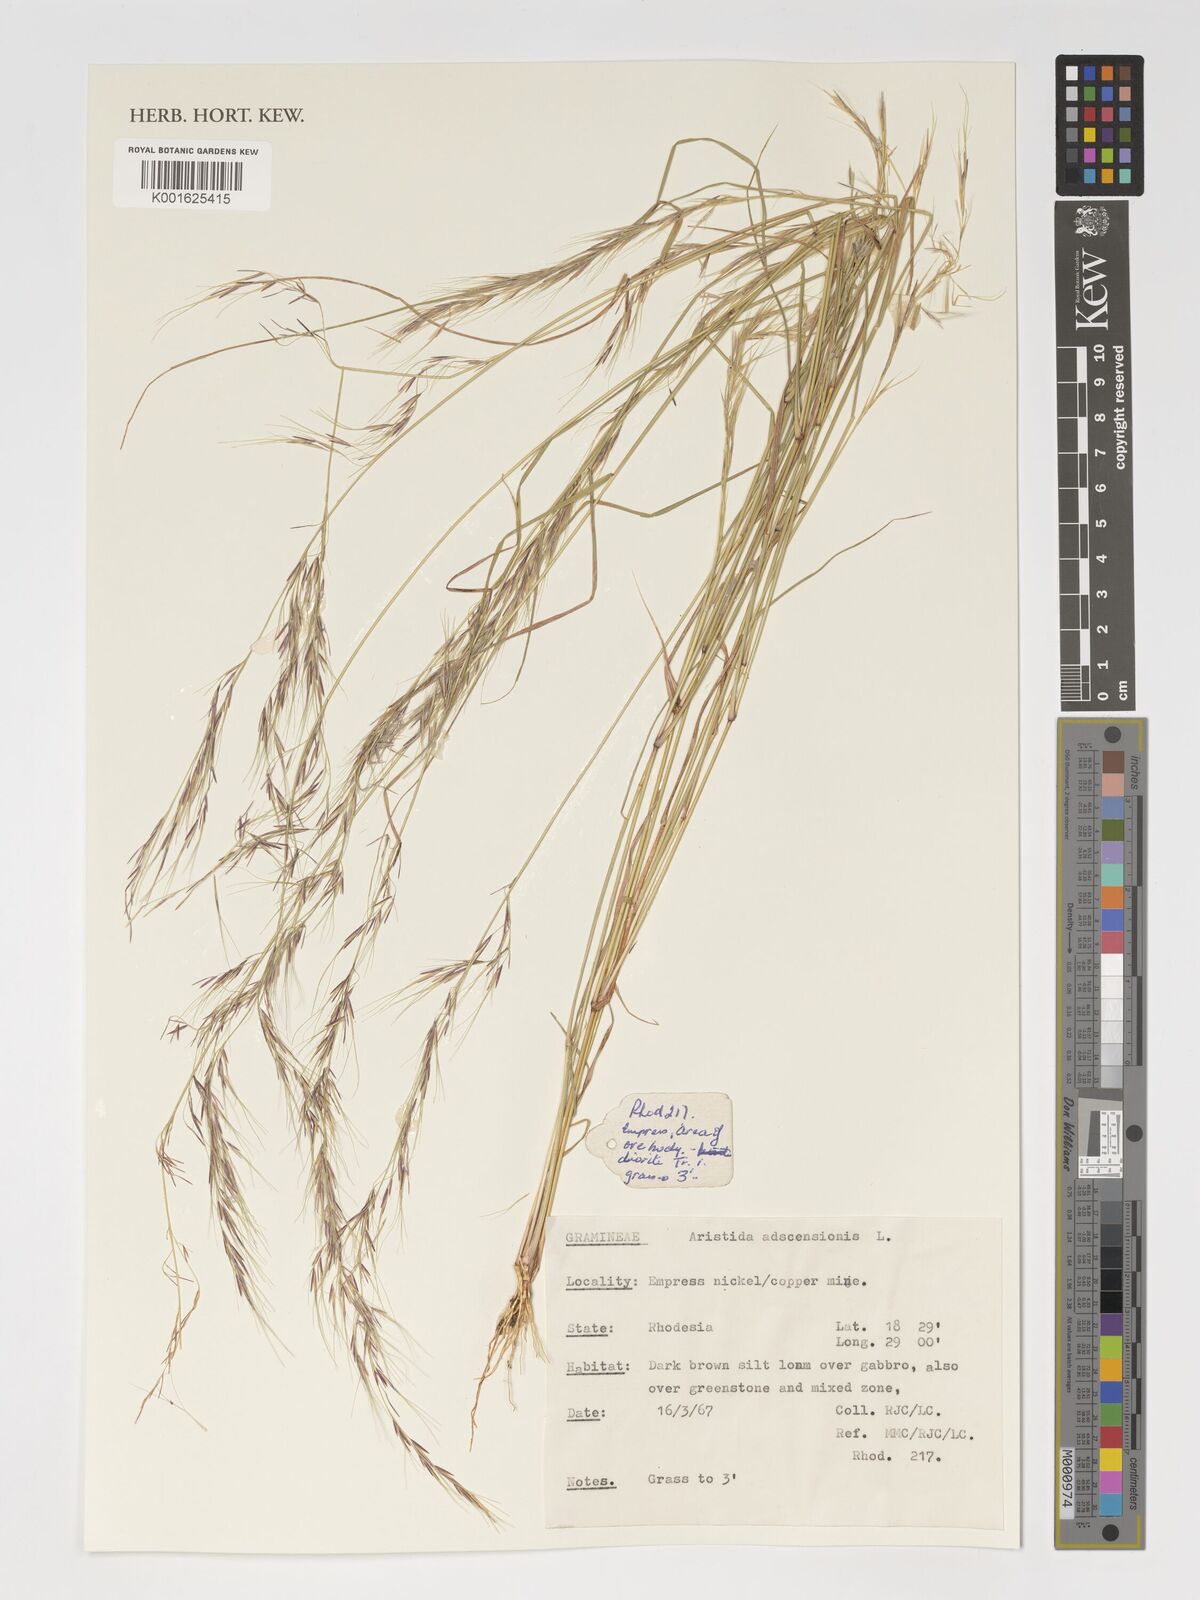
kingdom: Plantae
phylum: Tracheophyta
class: Liliopsida
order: Poales
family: Poaceae
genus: Aristida
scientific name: Aristida adscensionis
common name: Sixweeks threeawn
